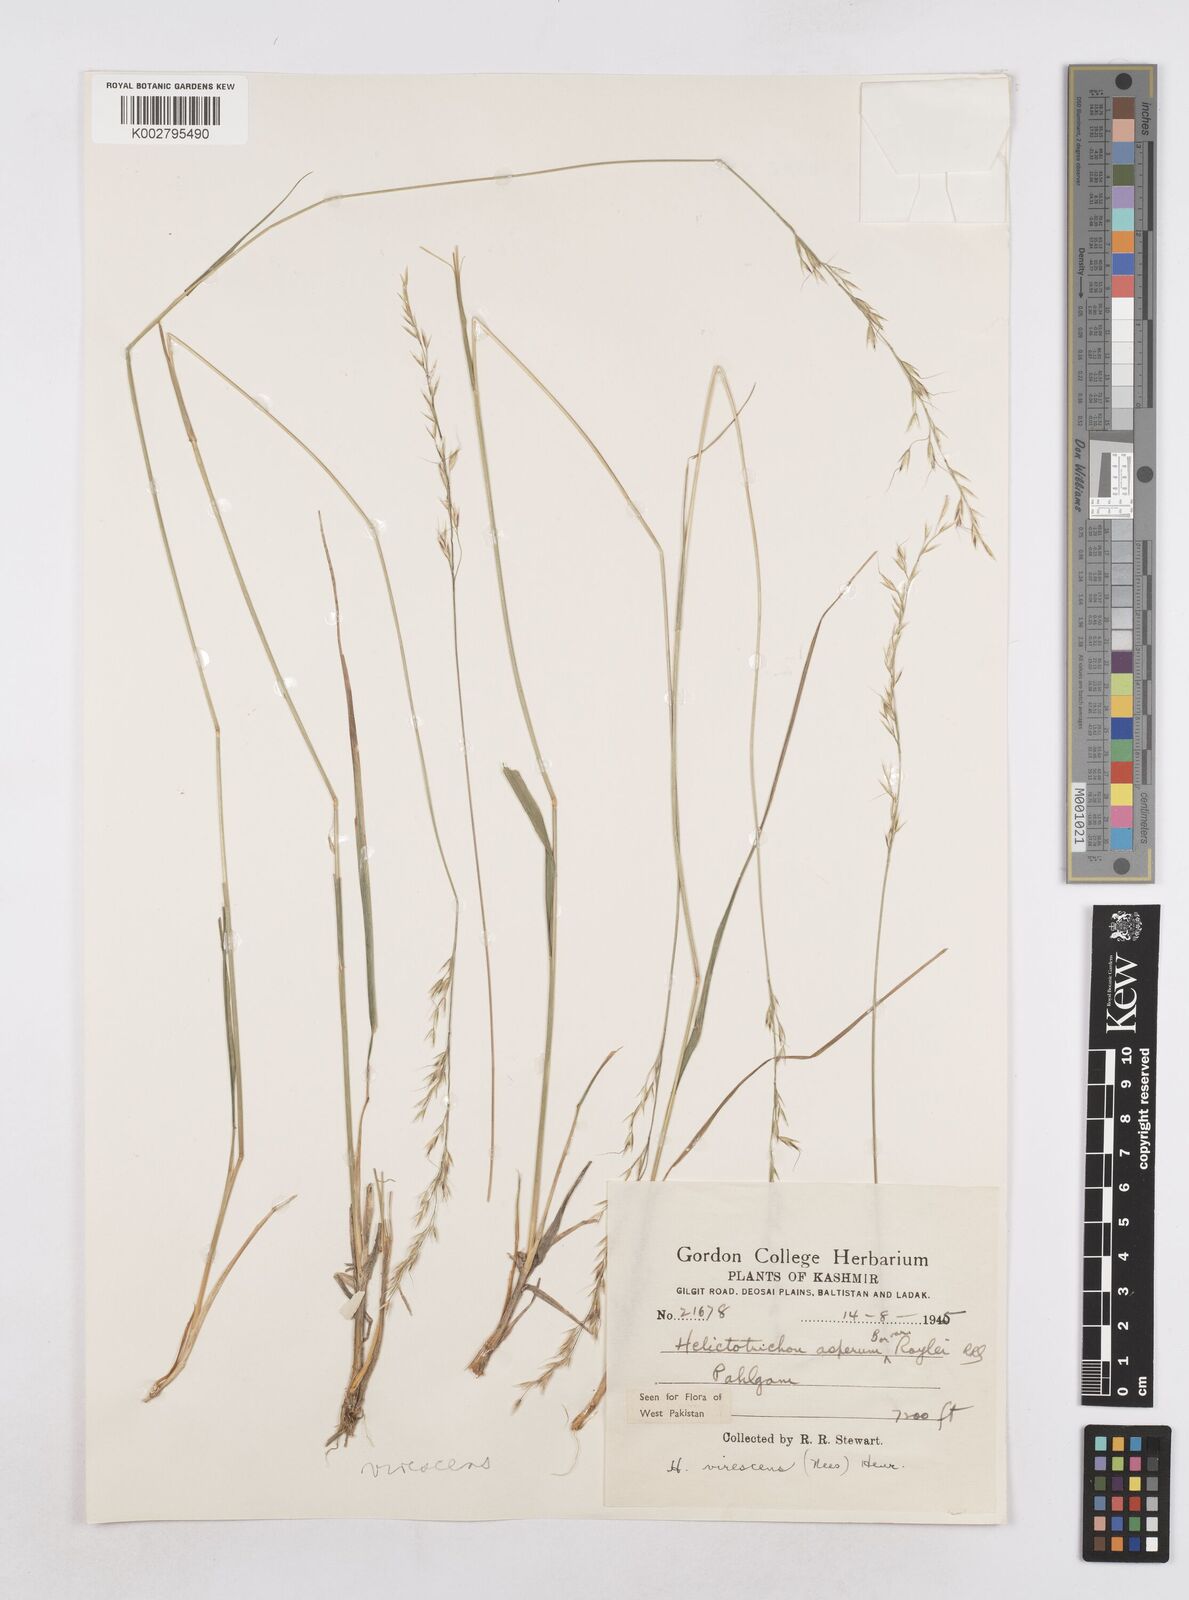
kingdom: Plantae
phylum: Tracheophyta
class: Liliopsida
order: Poales
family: Poaceae
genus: Trisetopsis
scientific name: Trisetopsis junghuhnii
